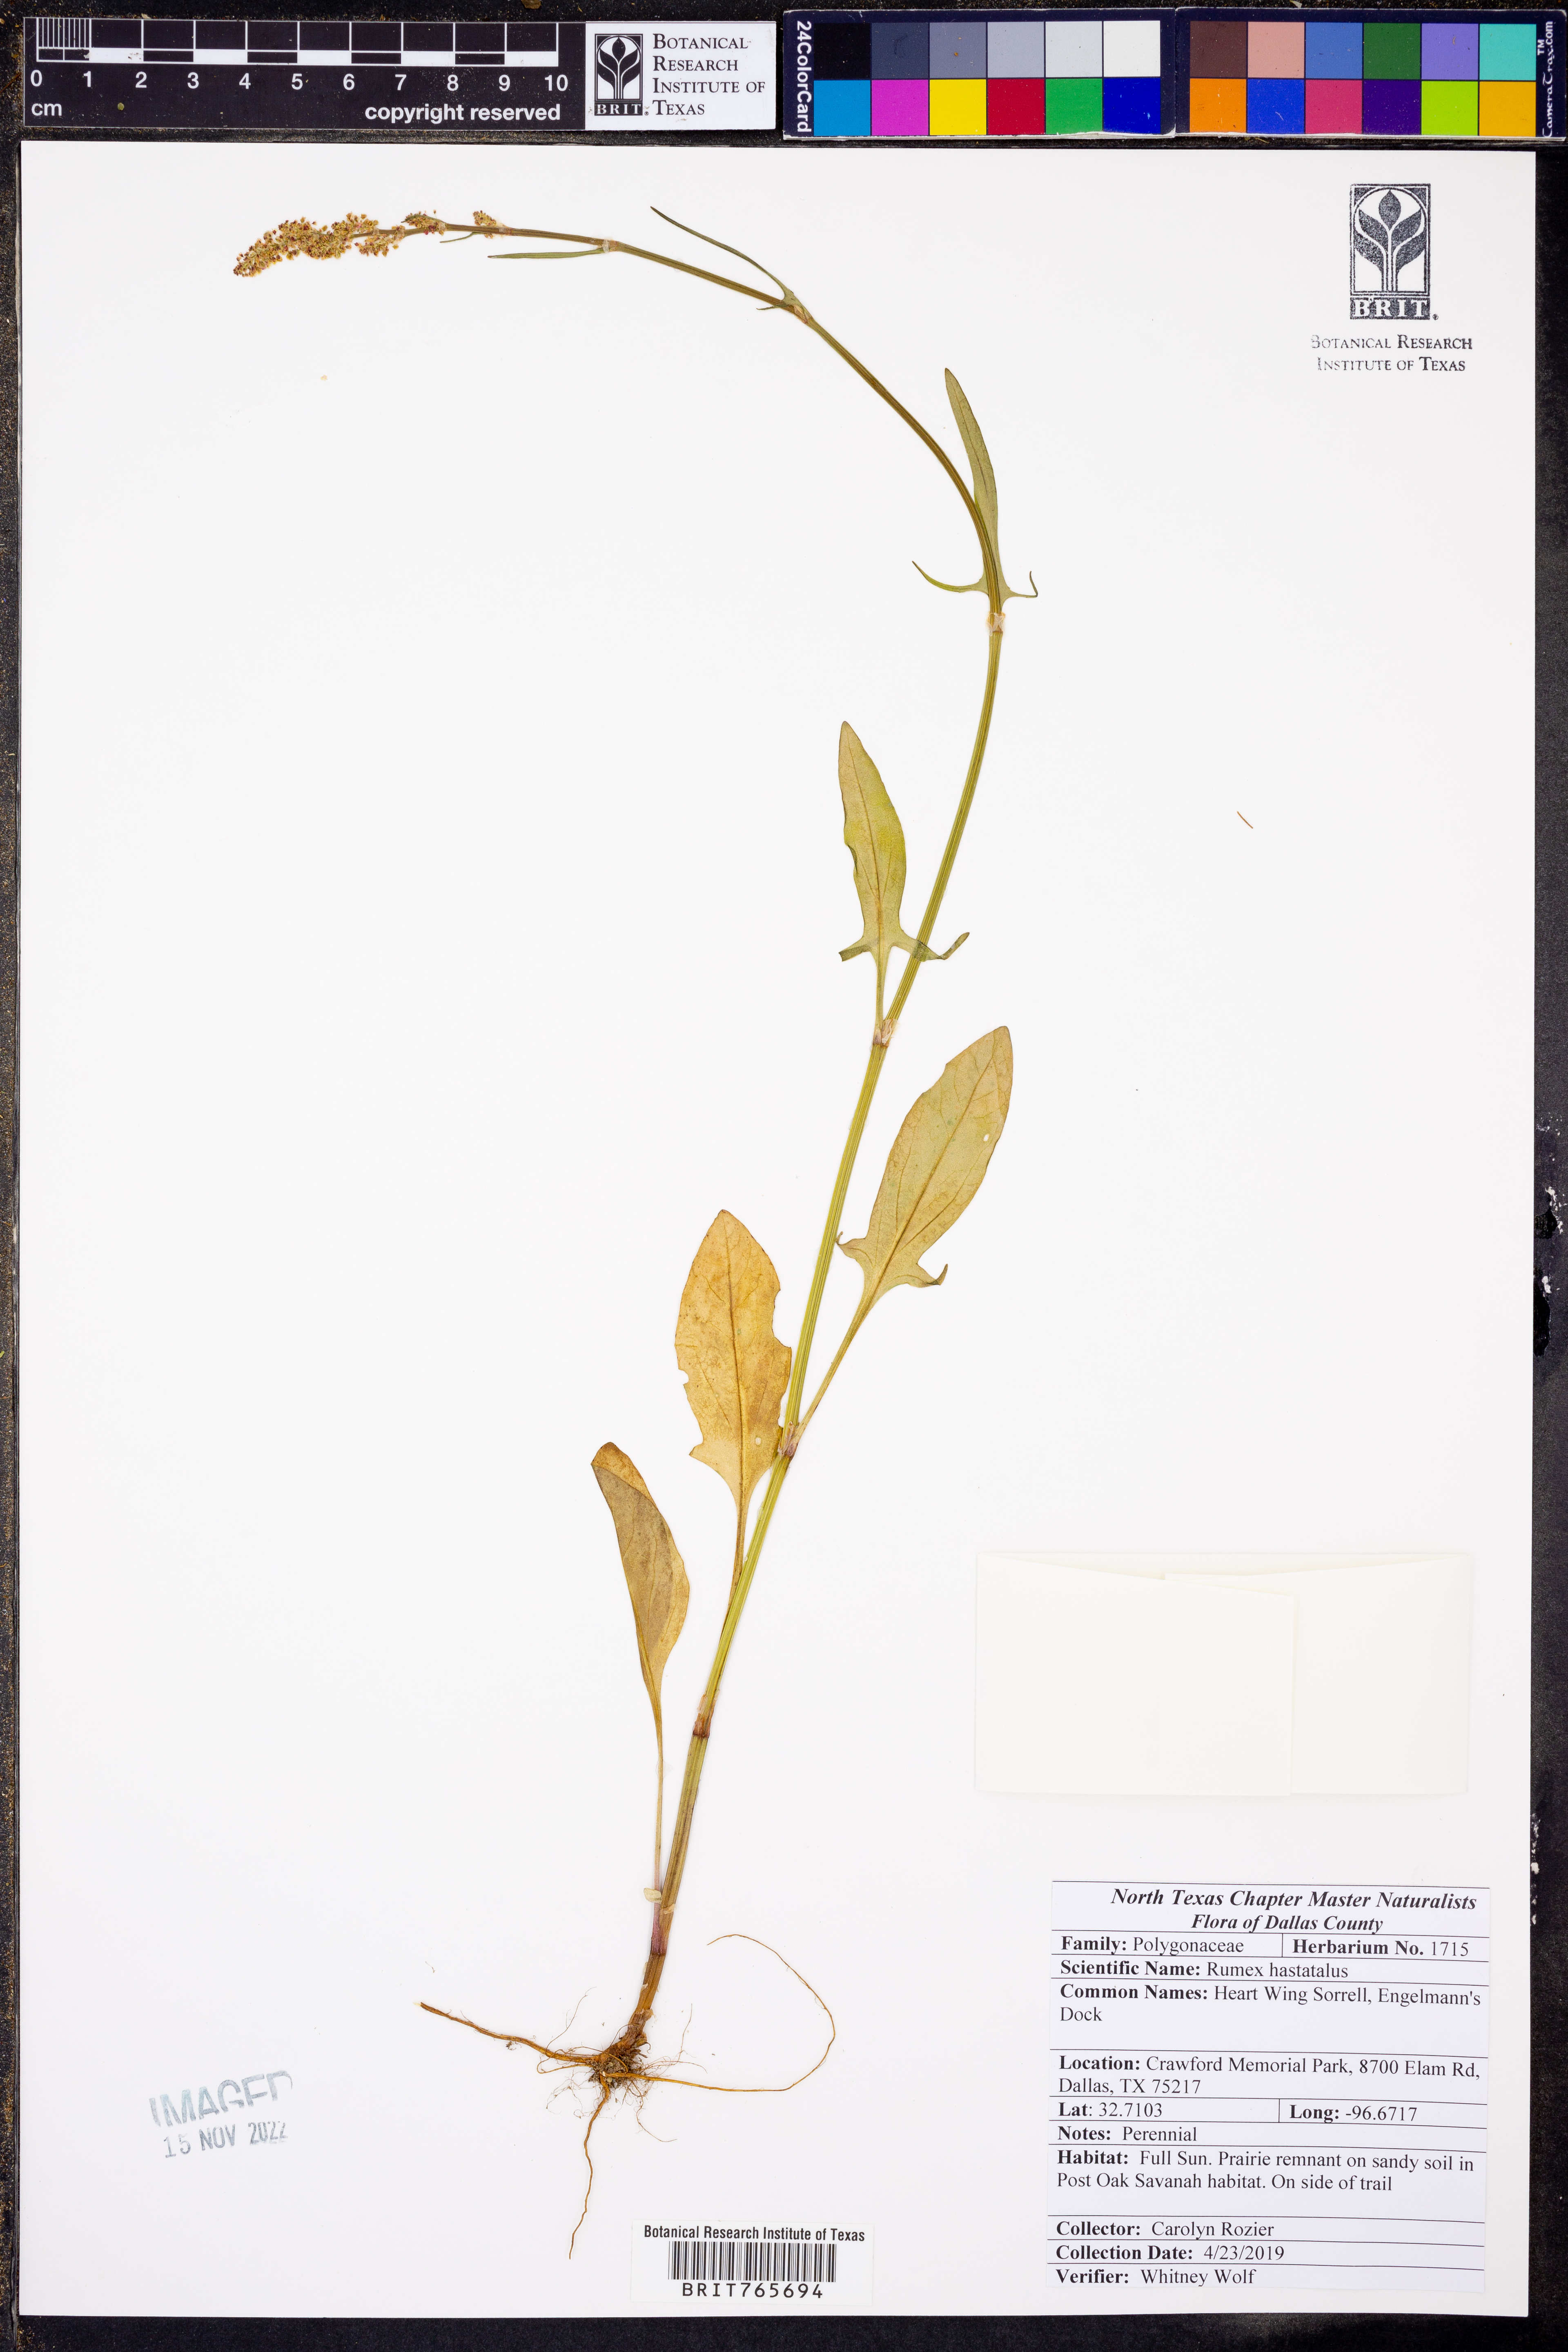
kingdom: Plantae
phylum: Tracheophyta
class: Magnoliopsida
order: Caryophyllales
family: Polygonaceae
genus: Rumex
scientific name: Rumex hastatulus
